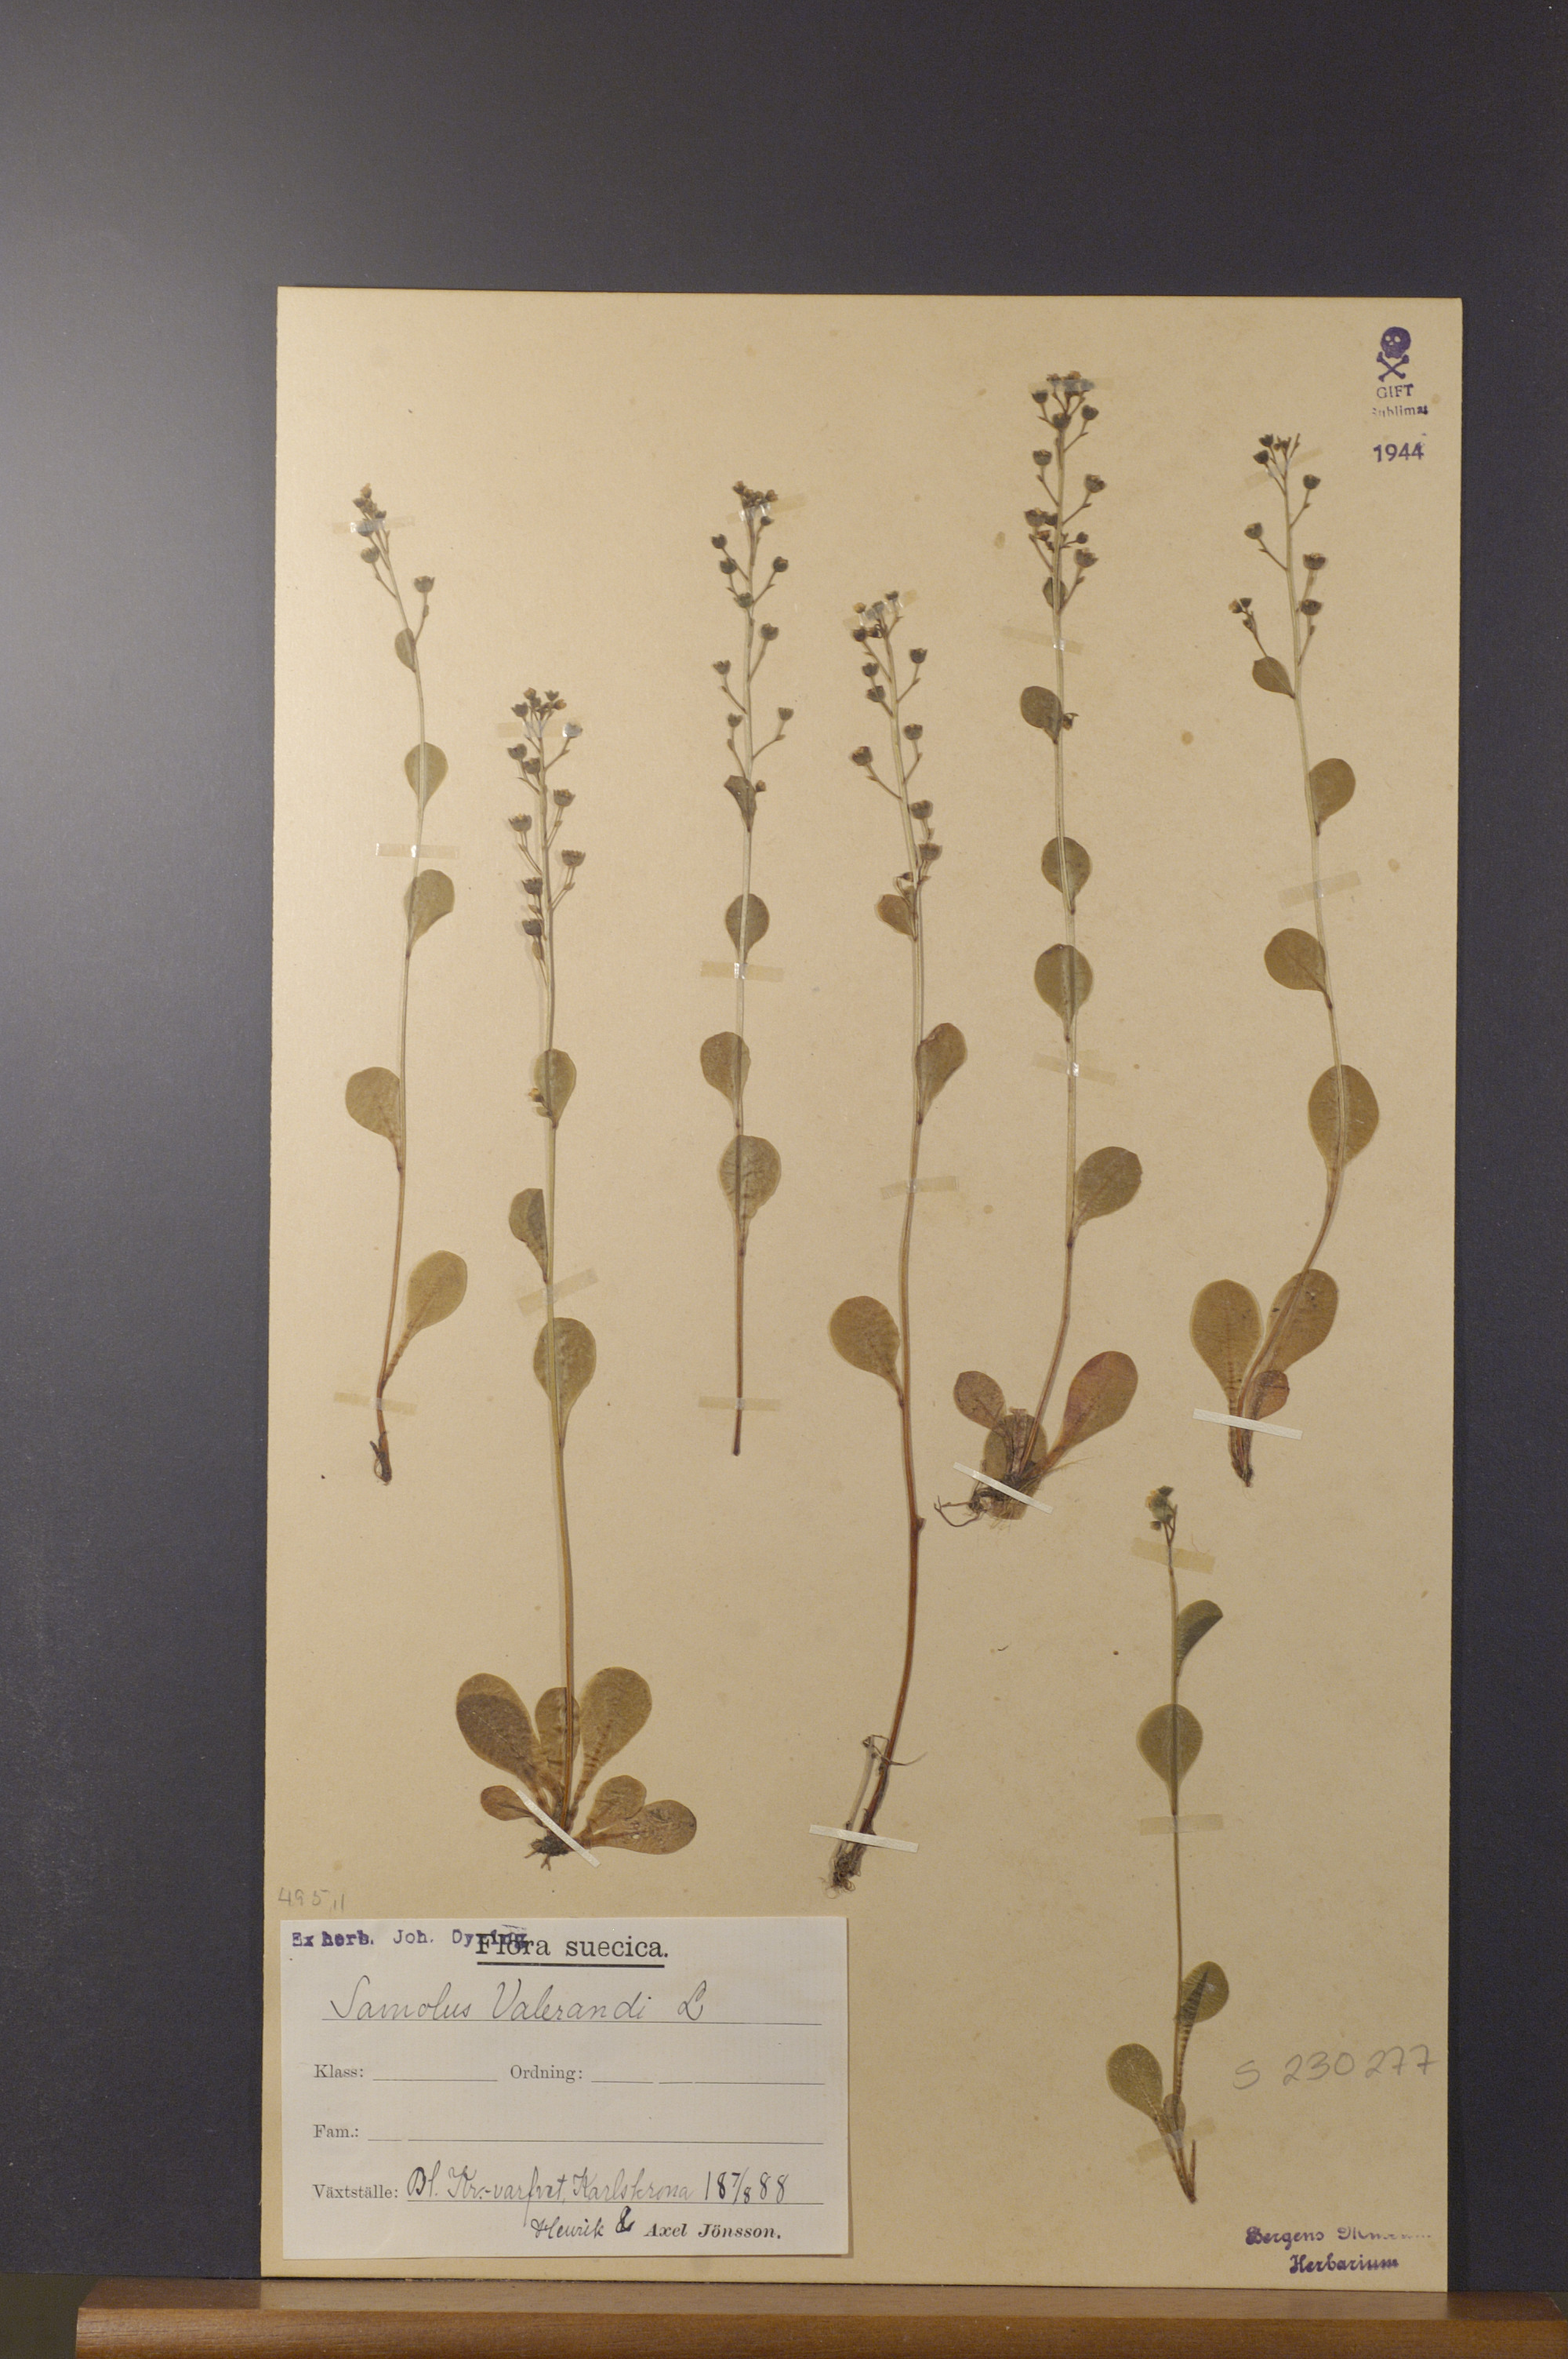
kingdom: Plantae
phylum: Tracheophyta
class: Magnoliopsida
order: Ericales
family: Primulaceae
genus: Samolus
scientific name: Samolus valerandi
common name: Brookweed
